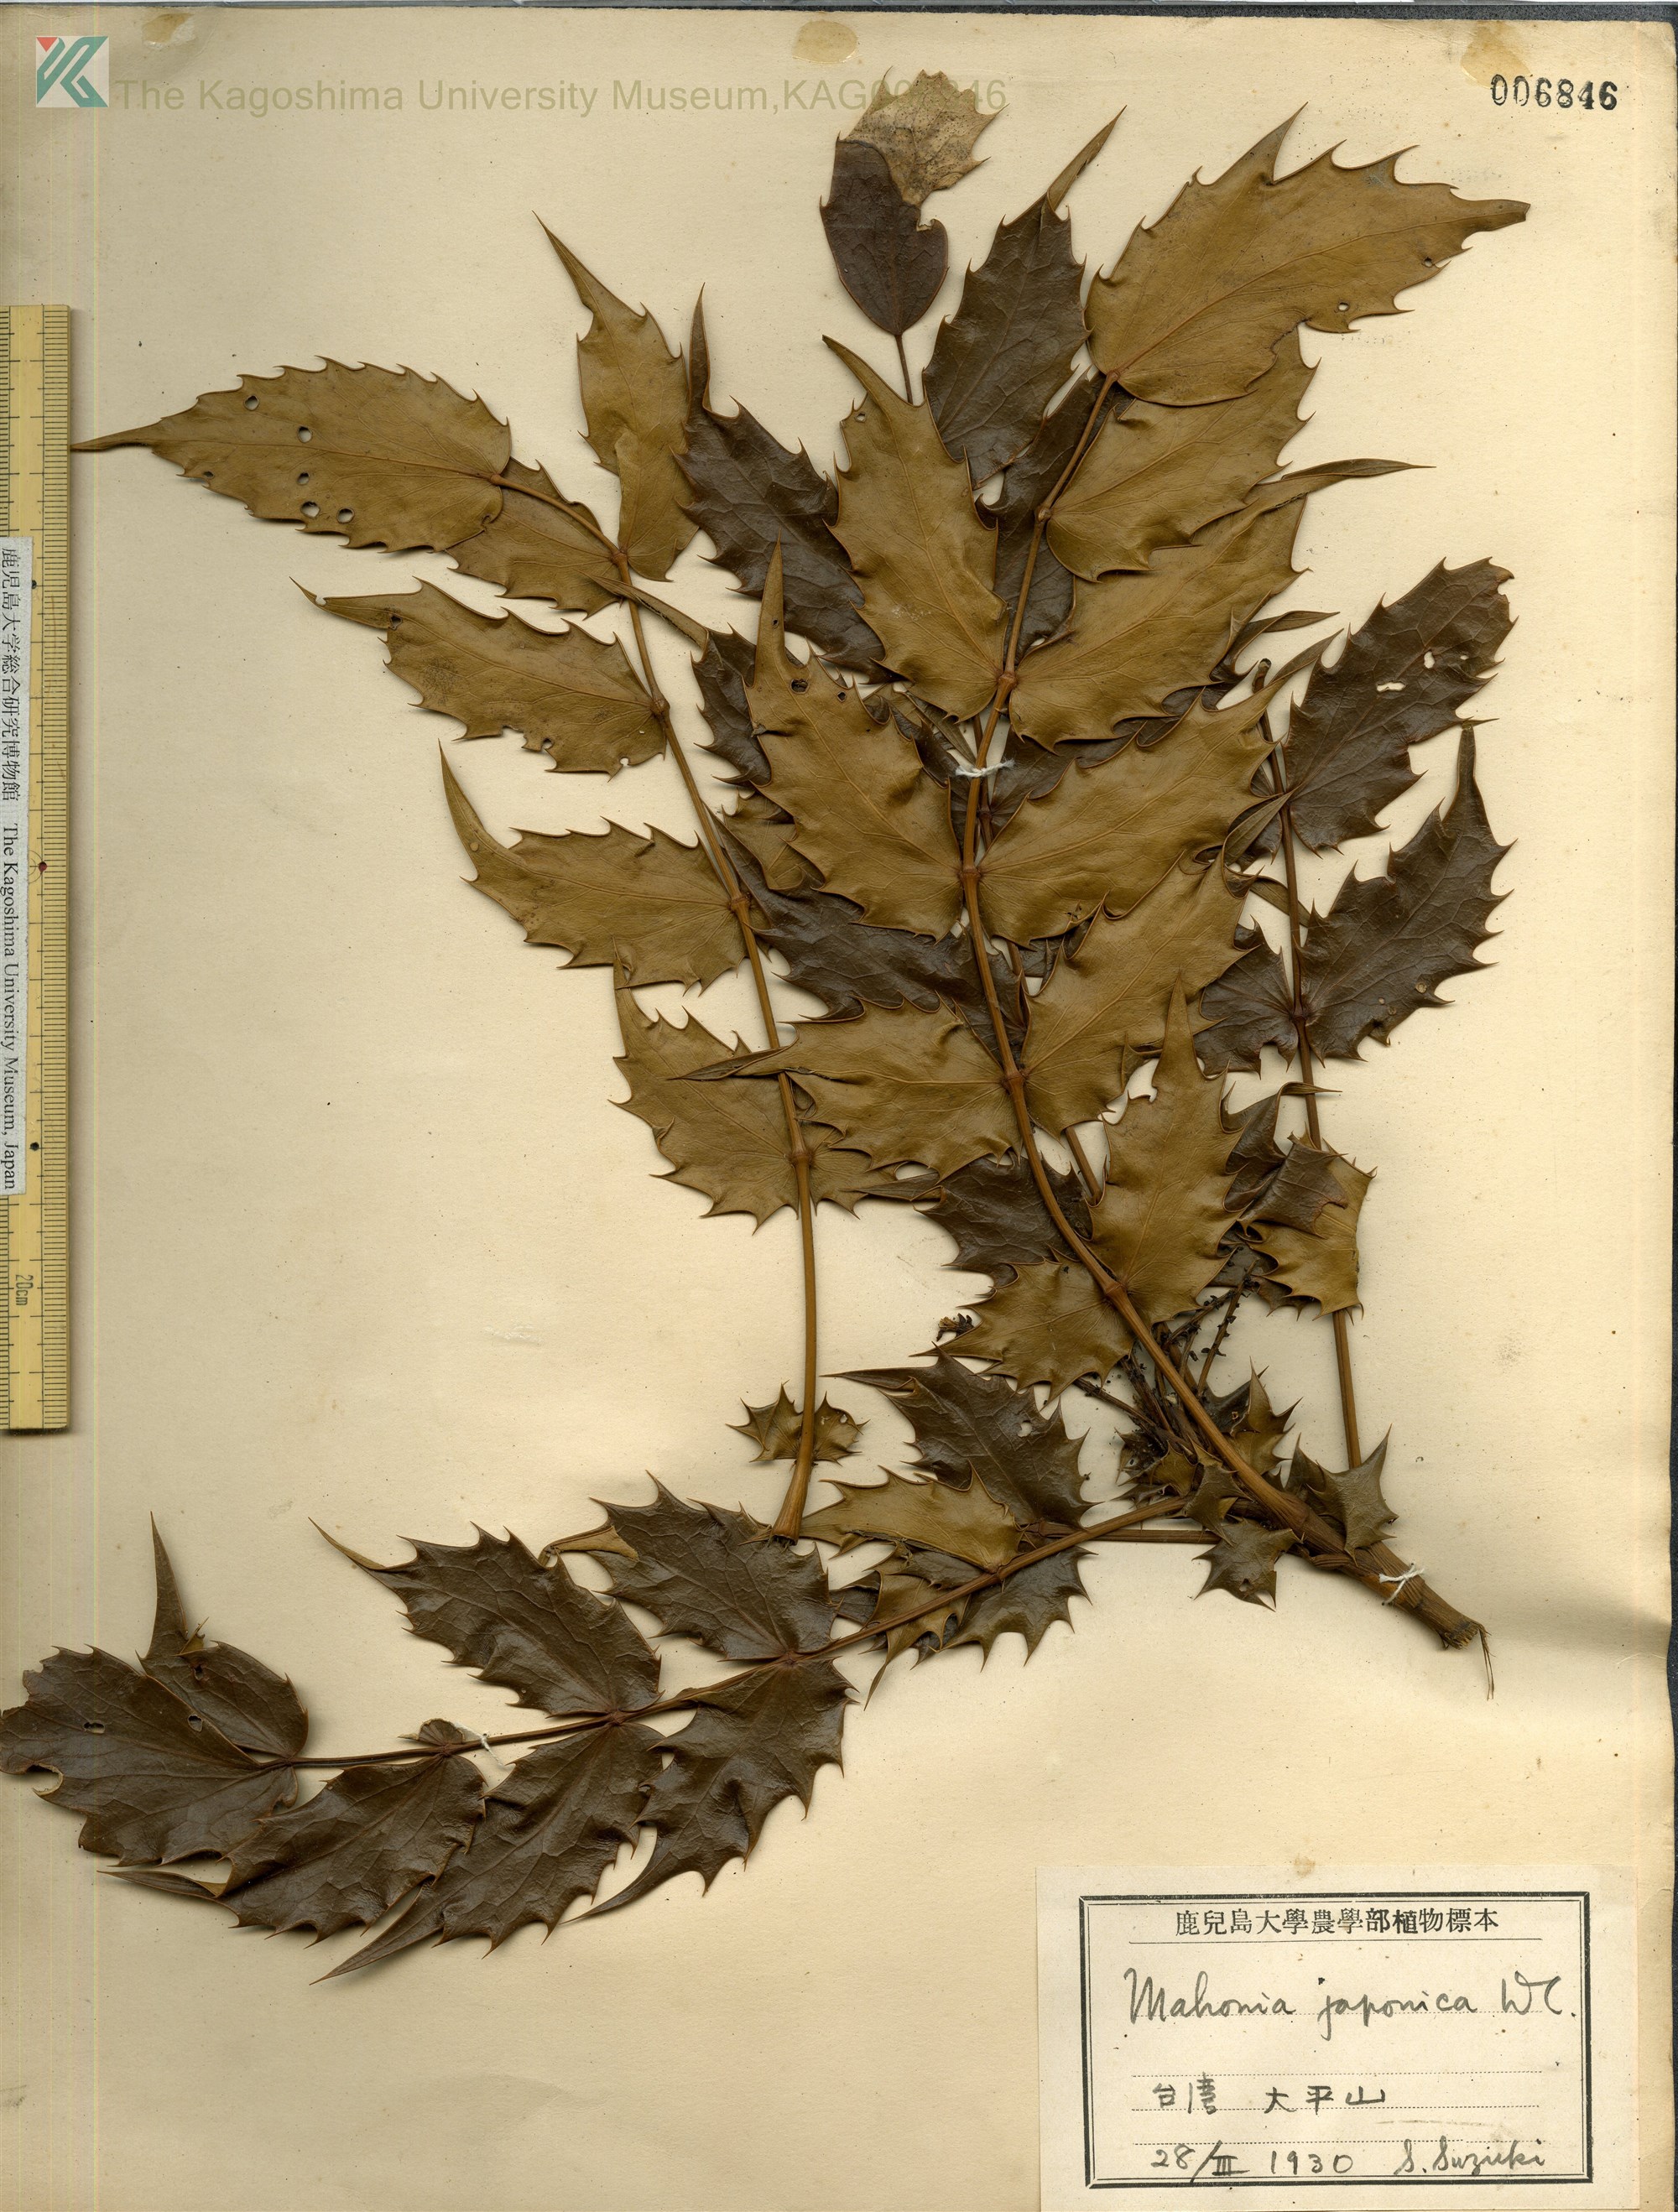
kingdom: Plantae
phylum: Tracheophyta
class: Magnoliopsida
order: Ranunculales
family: Berberidaceae
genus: Mahonia
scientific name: Mahonia japonica
